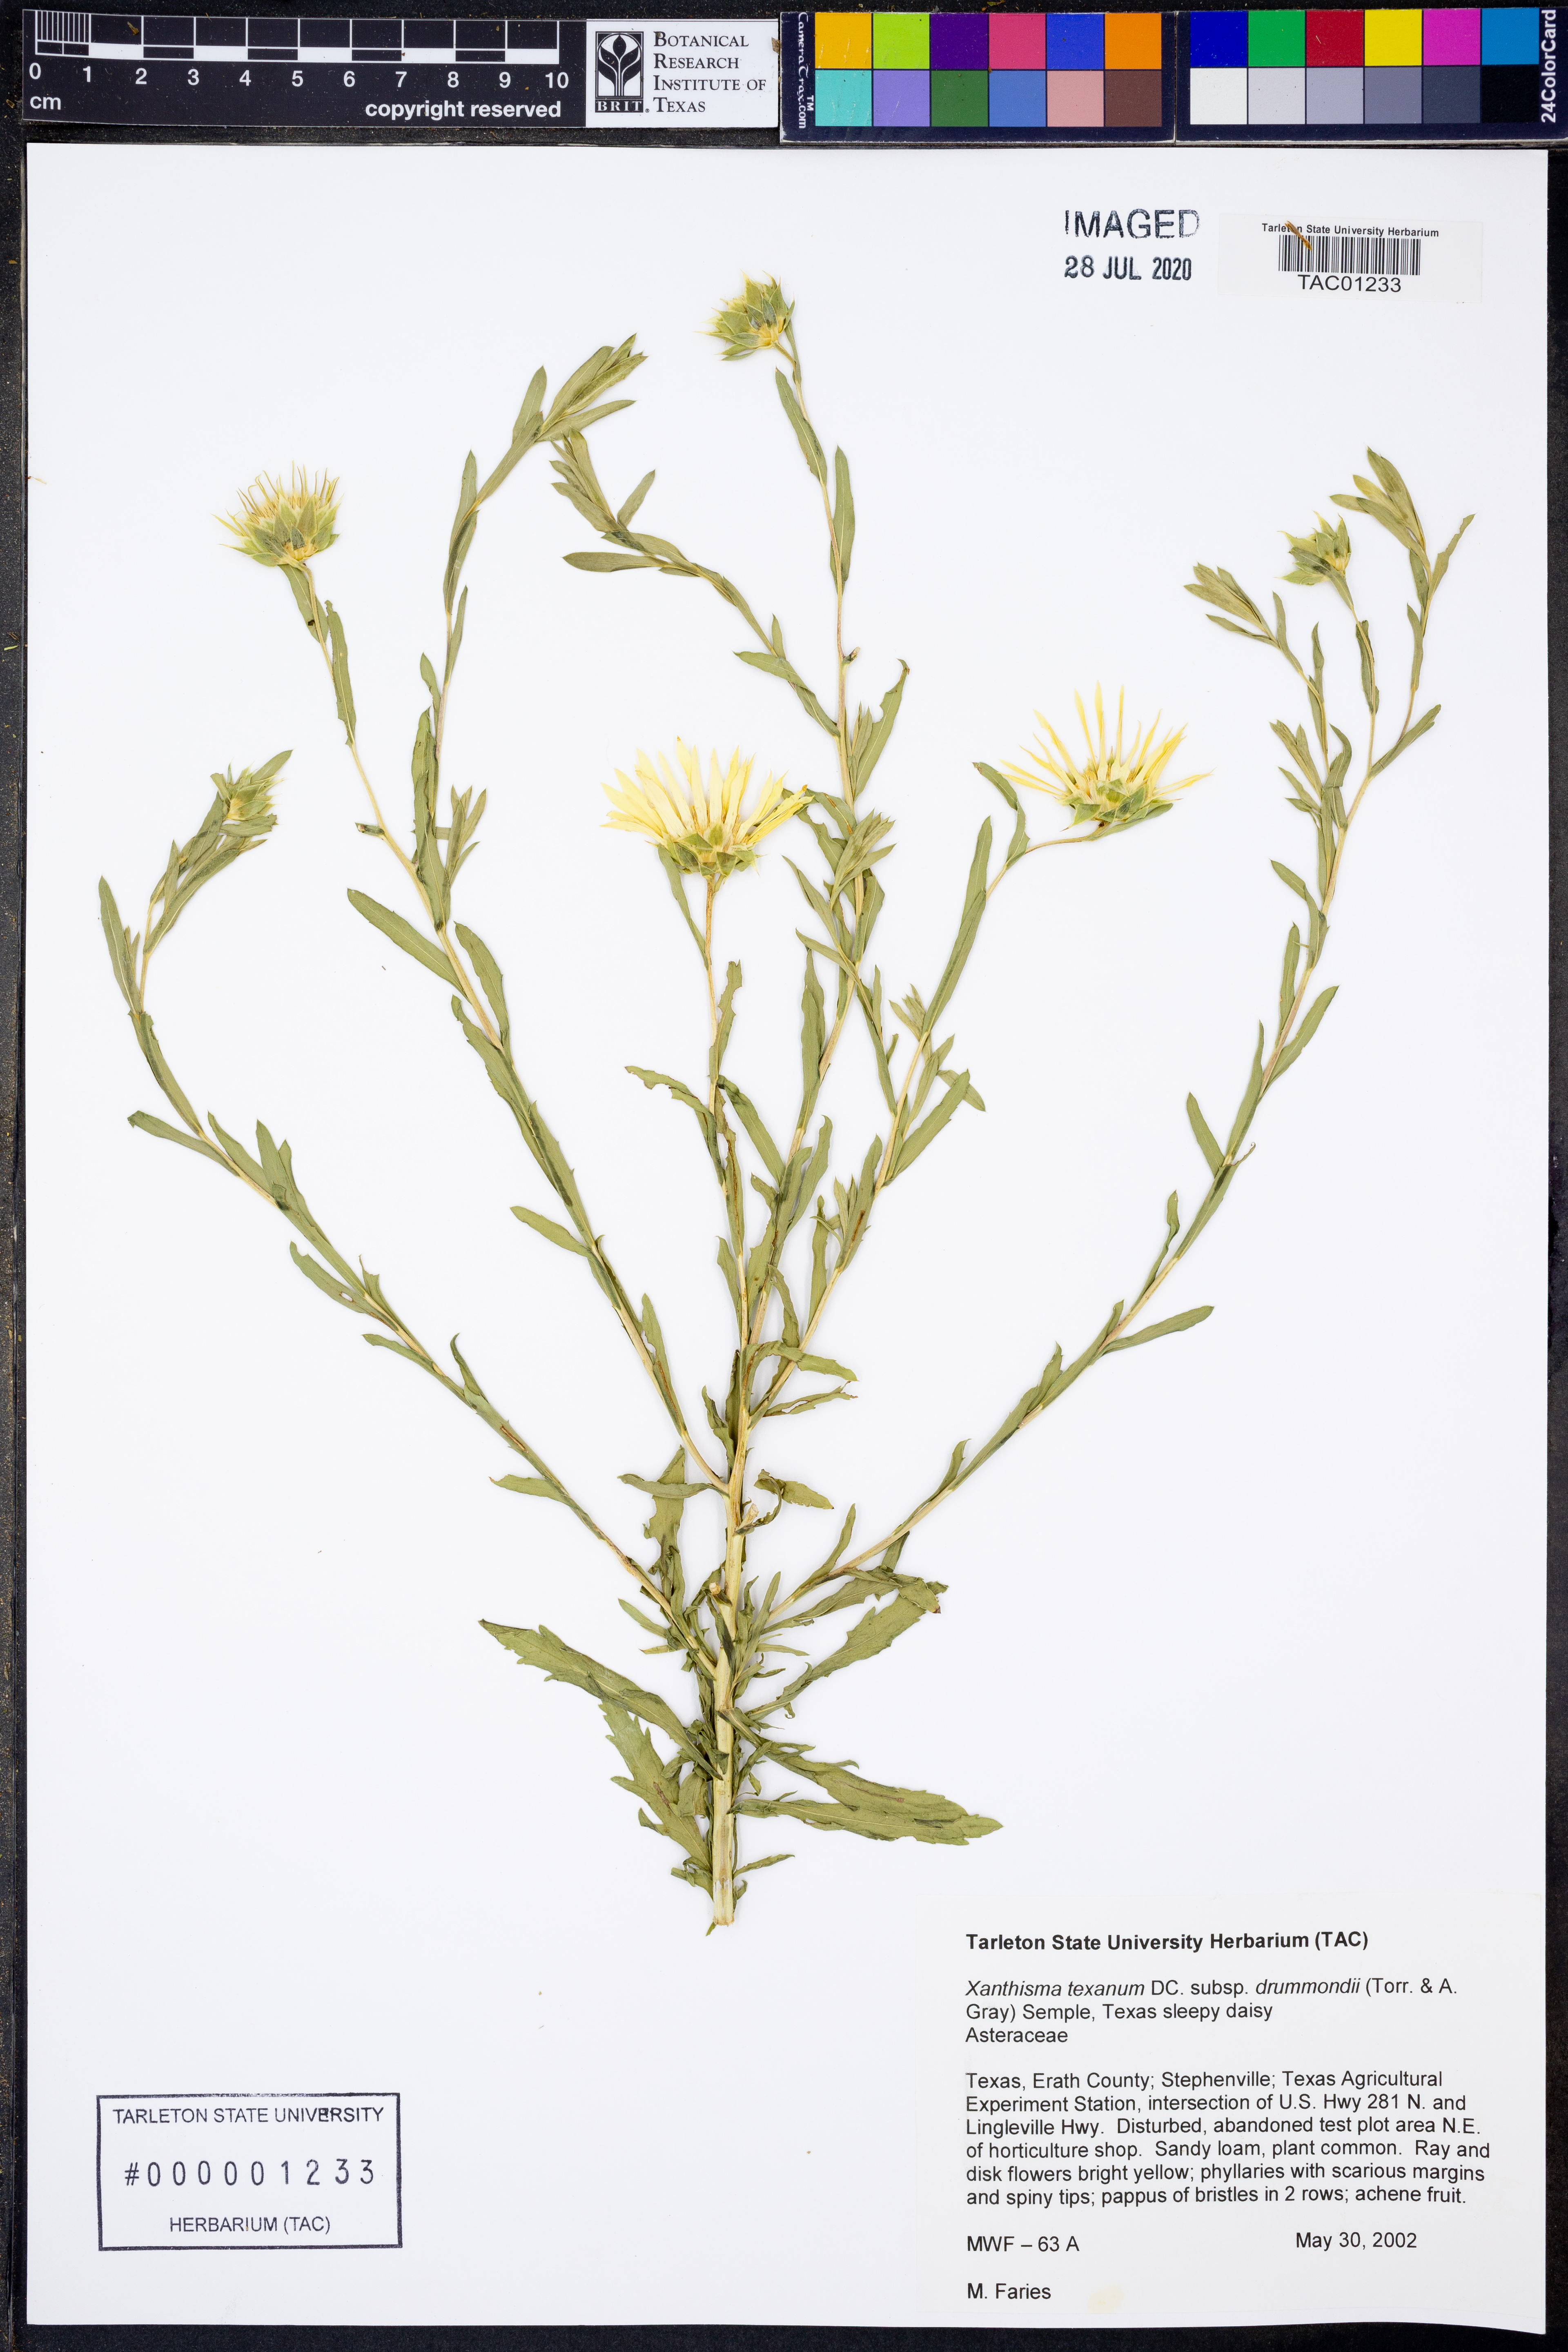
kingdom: Plantae
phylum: Tracheophyta
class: Magnoliopsida
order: Asterales
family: Asteraceae
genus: Xanthisma
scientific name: Xanthisma texanum
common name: Texas sleepy daisy
